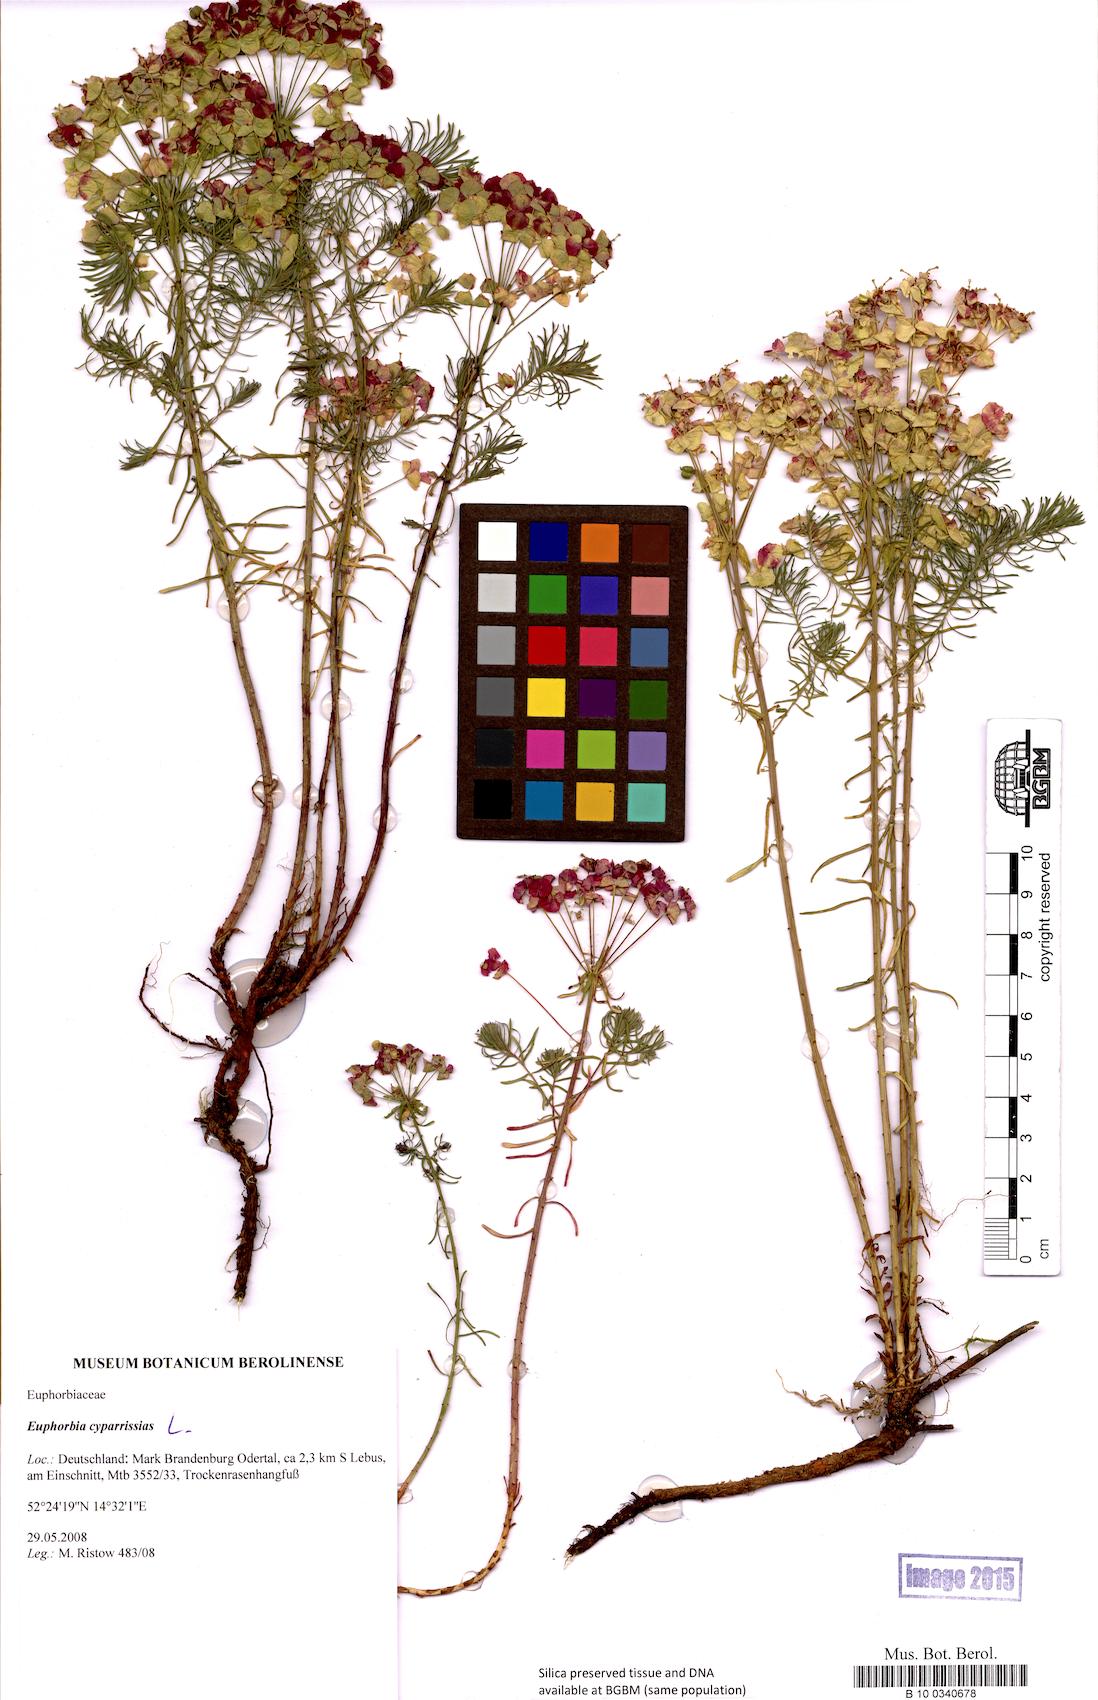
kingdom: Plantae
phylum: Tracheophyta
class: Magnoliopsida
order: Malpighiales
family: Euphorbiaceae
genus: Euphorbia
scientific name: Euphorbia cyparissias
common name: Cypress spurge
